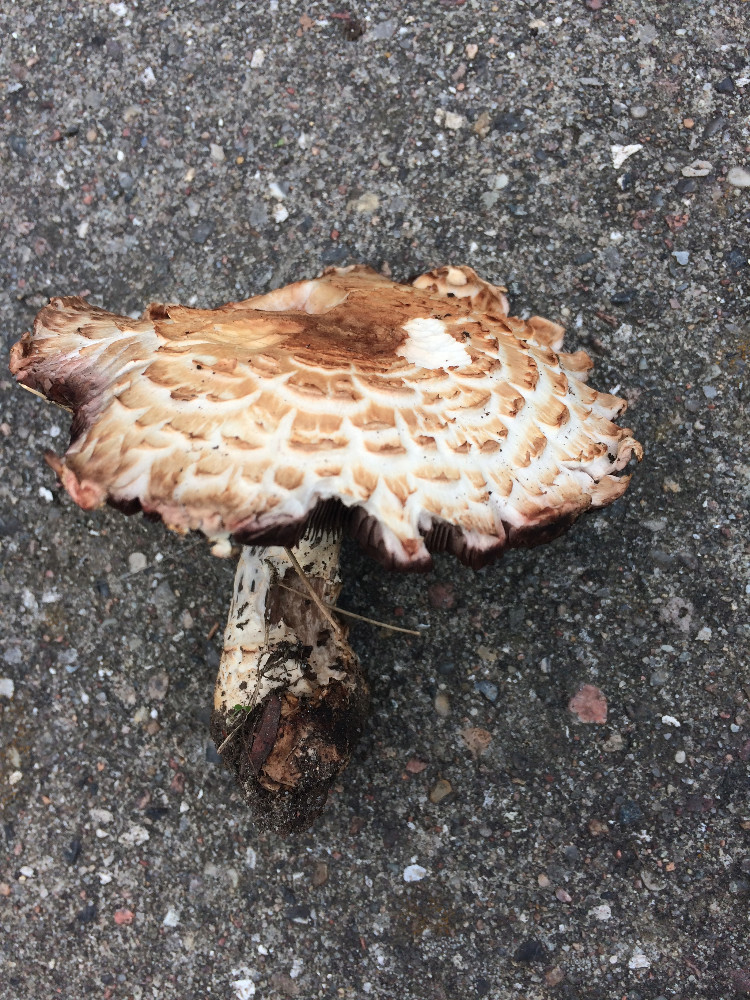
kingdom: Fungi
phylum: Basidiomycota
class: Agaricomycetes
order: Agaricales
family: Agaricaceae
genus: Agaricus
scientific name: Agaricus augustus
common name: prægtig champignon
